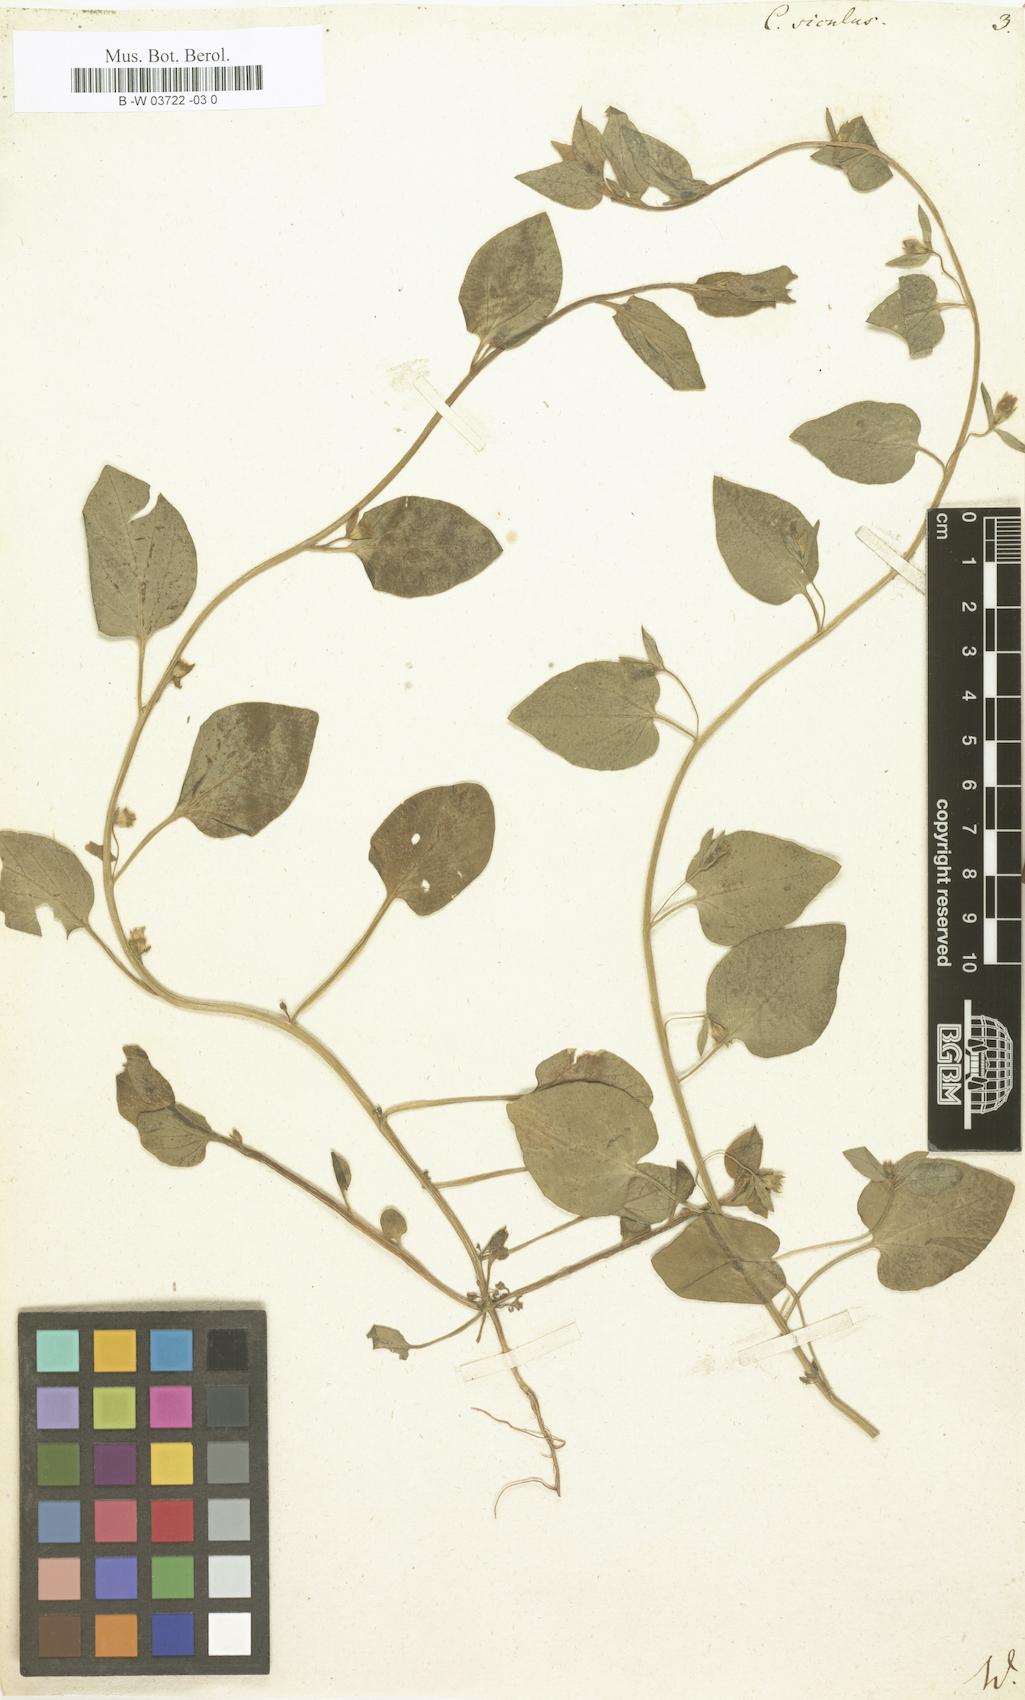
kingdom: Plantae
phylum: Tracheophyta
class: Magnoliopsida
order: Solanales
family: Convolvulaceae
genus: Convolvulus
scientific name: Convolvulus siculus
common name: Small blue-convolvulus
